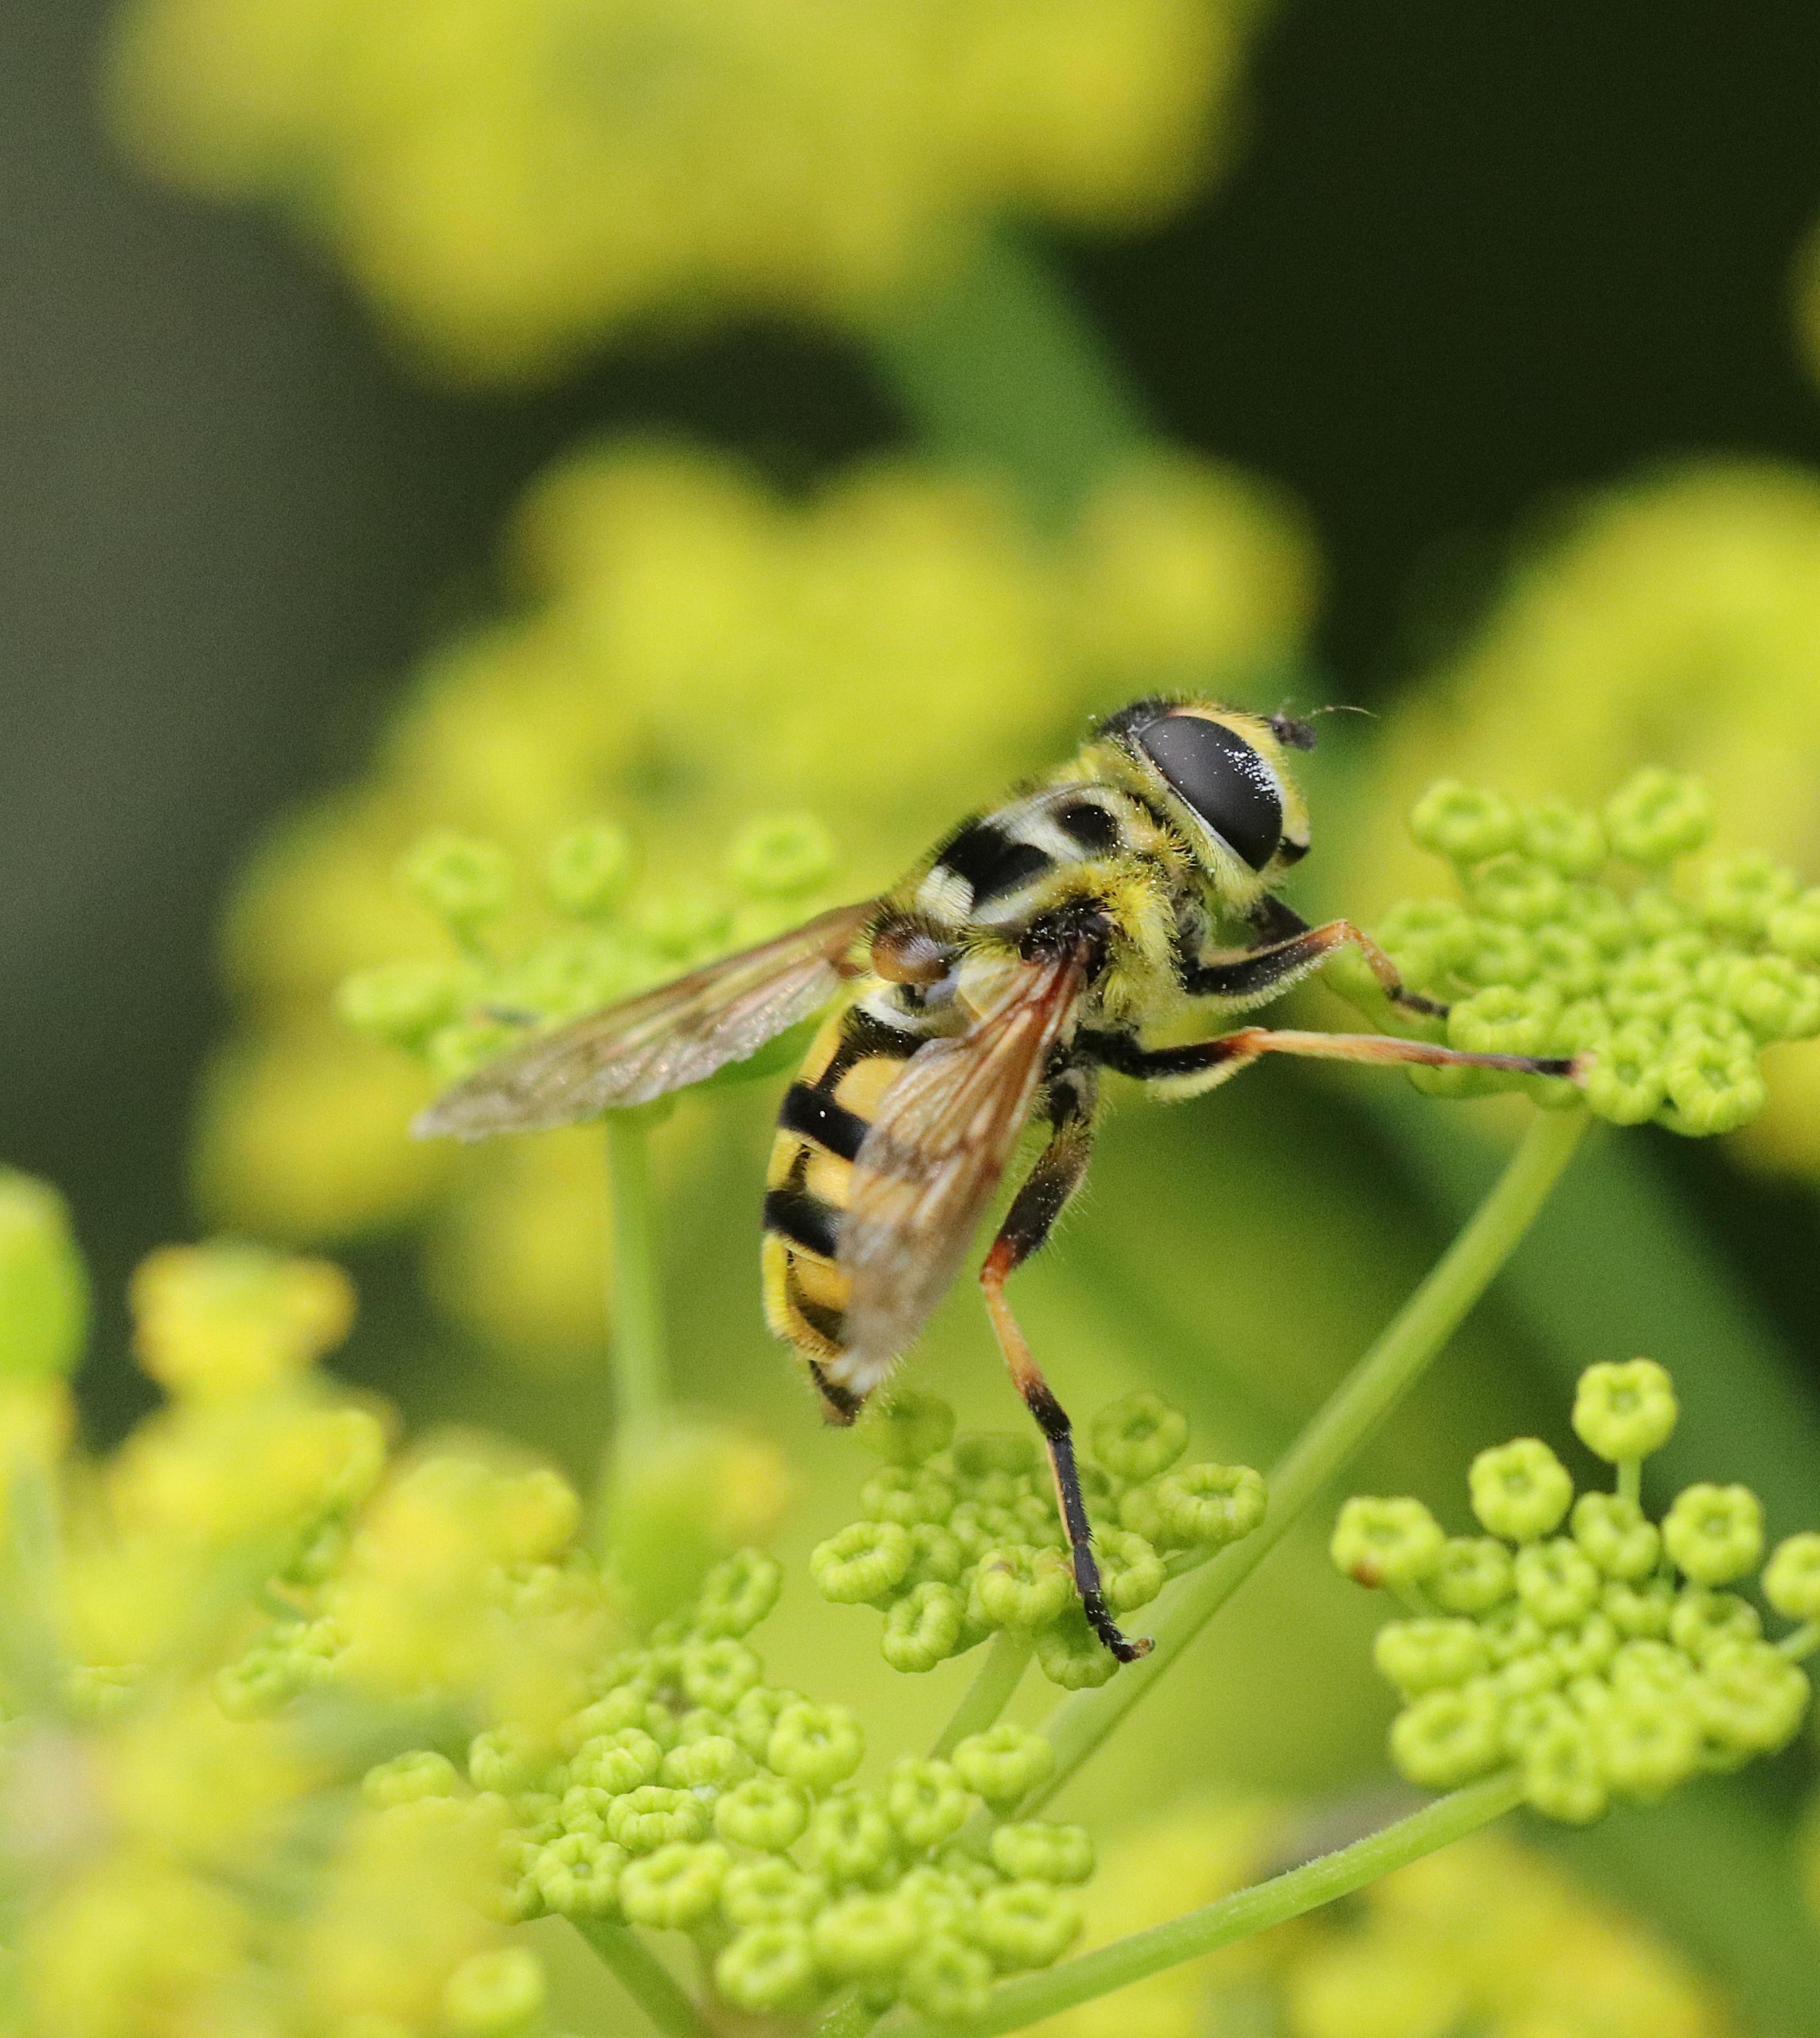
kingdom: Animalia
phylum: Arthropoda
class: Insecta
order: Diptera
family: Syrphidae
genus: Myathropa
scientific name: Myathropa florea
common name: Dødningehoved-svirreflue
